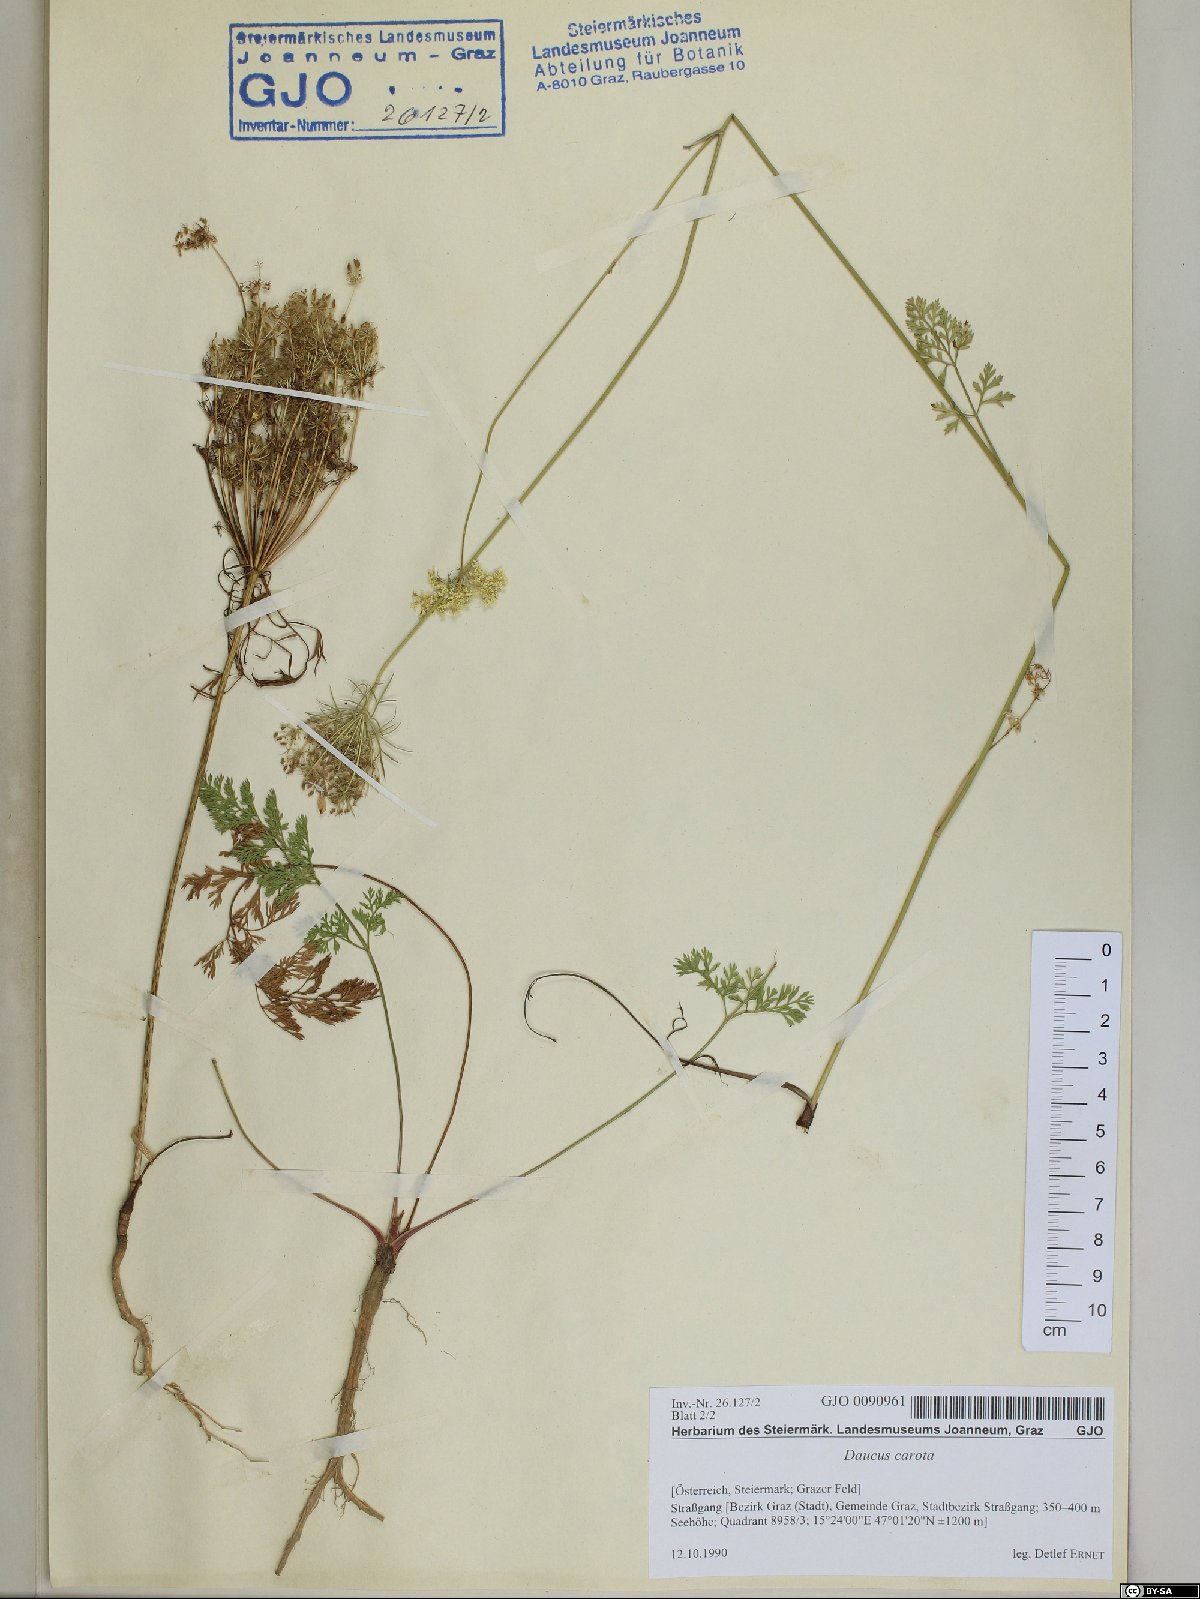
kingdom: Plantae
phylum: Tracheophyta
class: Magnoliopsida
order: Apiales
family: Apiaceae
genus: Daucus
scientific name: Daucus carota
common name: Wild carrot
